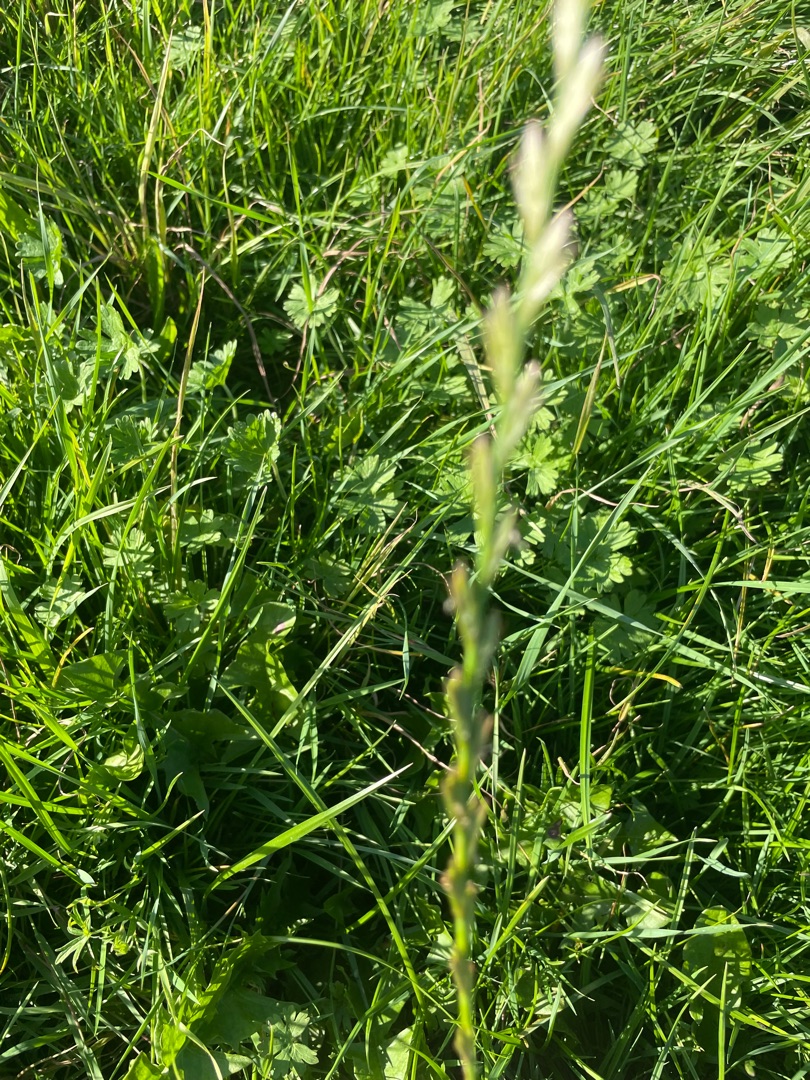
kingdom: Plantae
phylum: Tracheophyta
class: Liliopsida
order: Poales
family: Poaceae
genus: Lolium
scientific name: Lolium perenne
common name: Almindelig rajgræs
